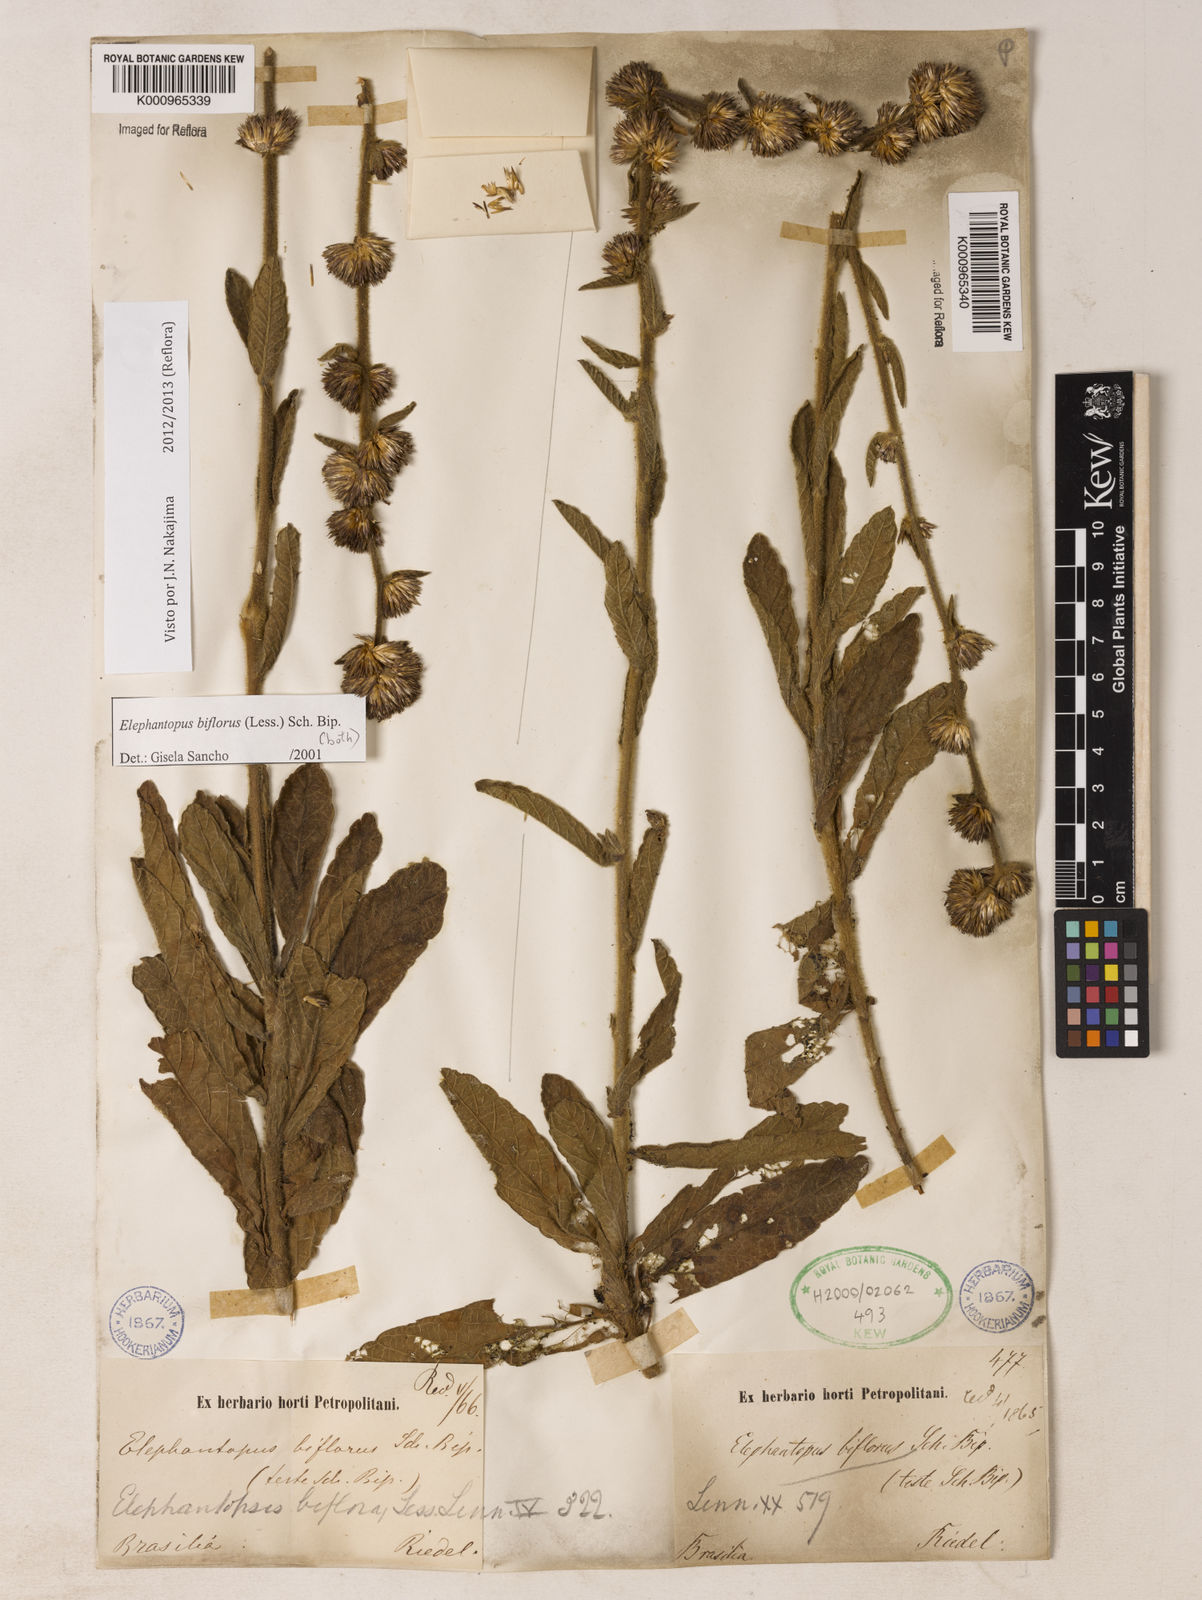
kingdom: Plantae
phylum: Tracheophyta
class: Magnoliopsida
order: Asterales
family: Asteraceae
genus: Elephantopus
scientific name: Elephantopus biflorus
